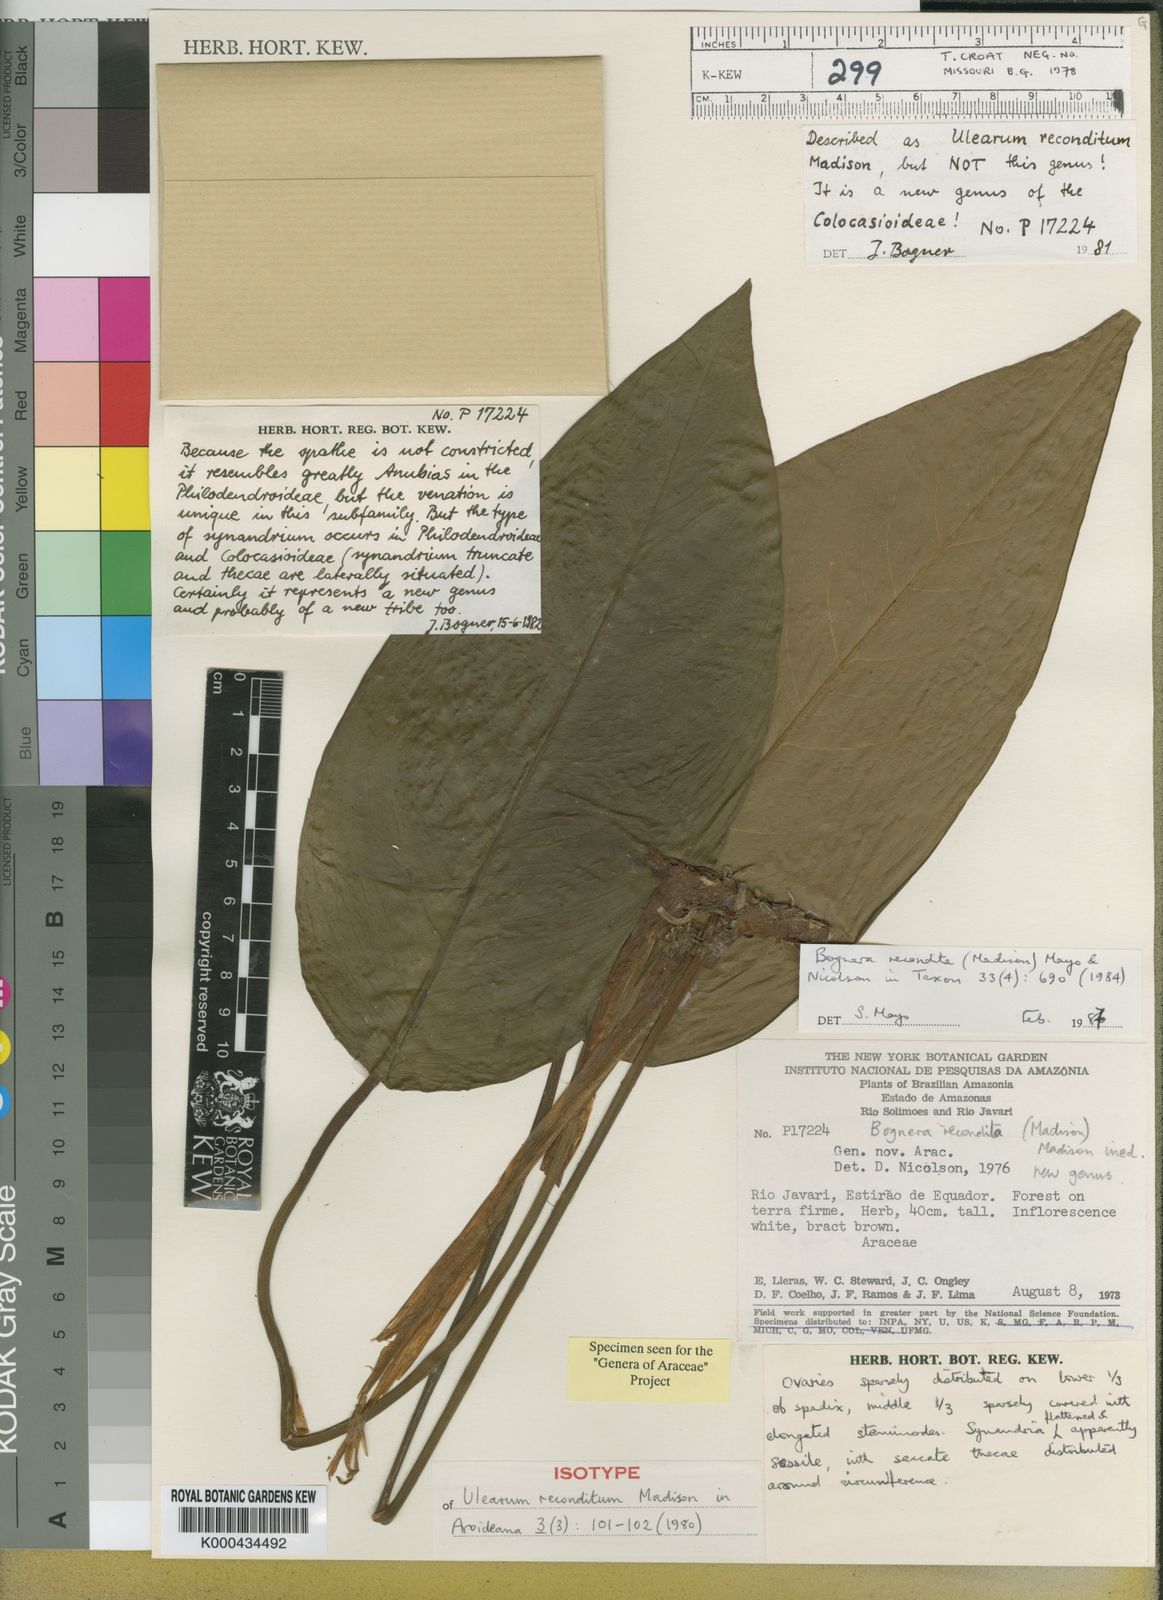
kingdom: Plantae
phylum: Tracheophyta
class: Liliopsida
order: Alismatales
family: Araceae
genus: Bognera
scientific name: Bognera recondita
